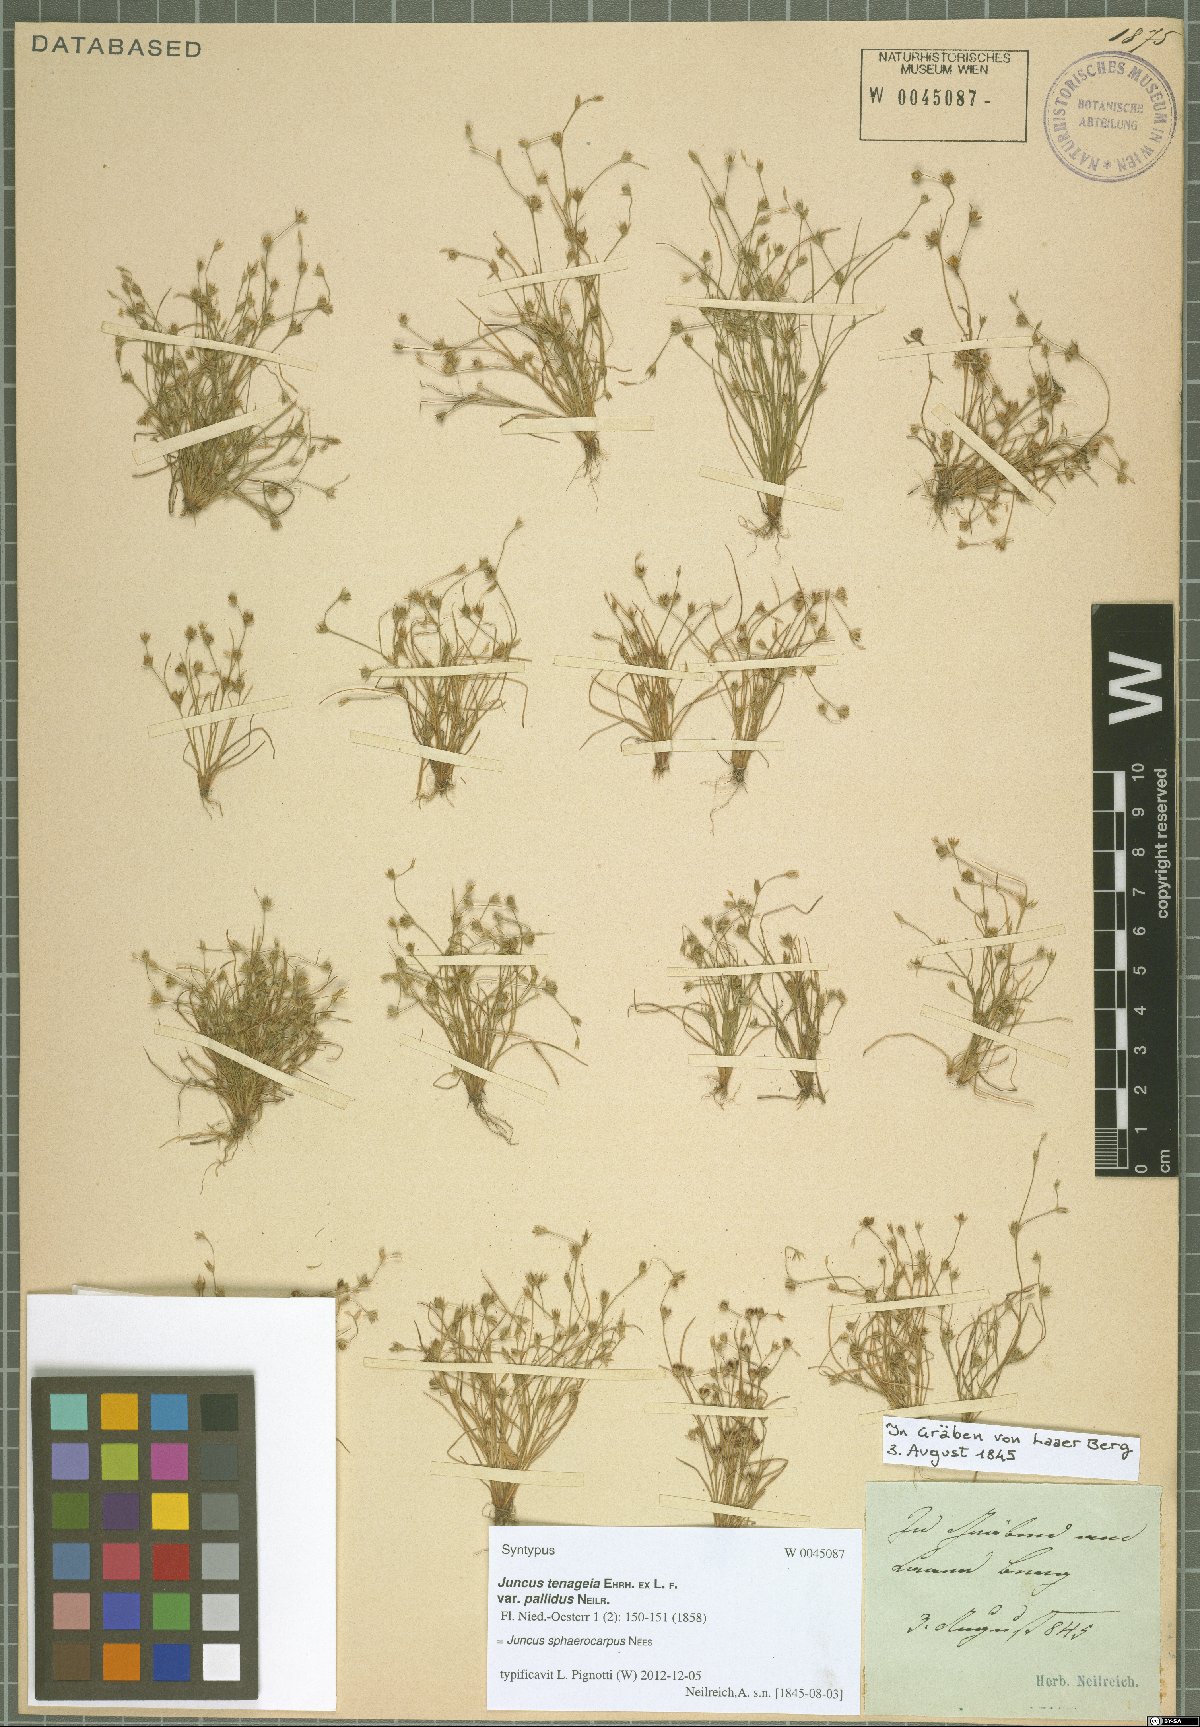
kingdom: Plantae
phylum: Tracheophyta
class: Liliopsida
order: Poales
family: Juncaceae
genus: Juncus
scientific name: Juncus sphaerocarpus
